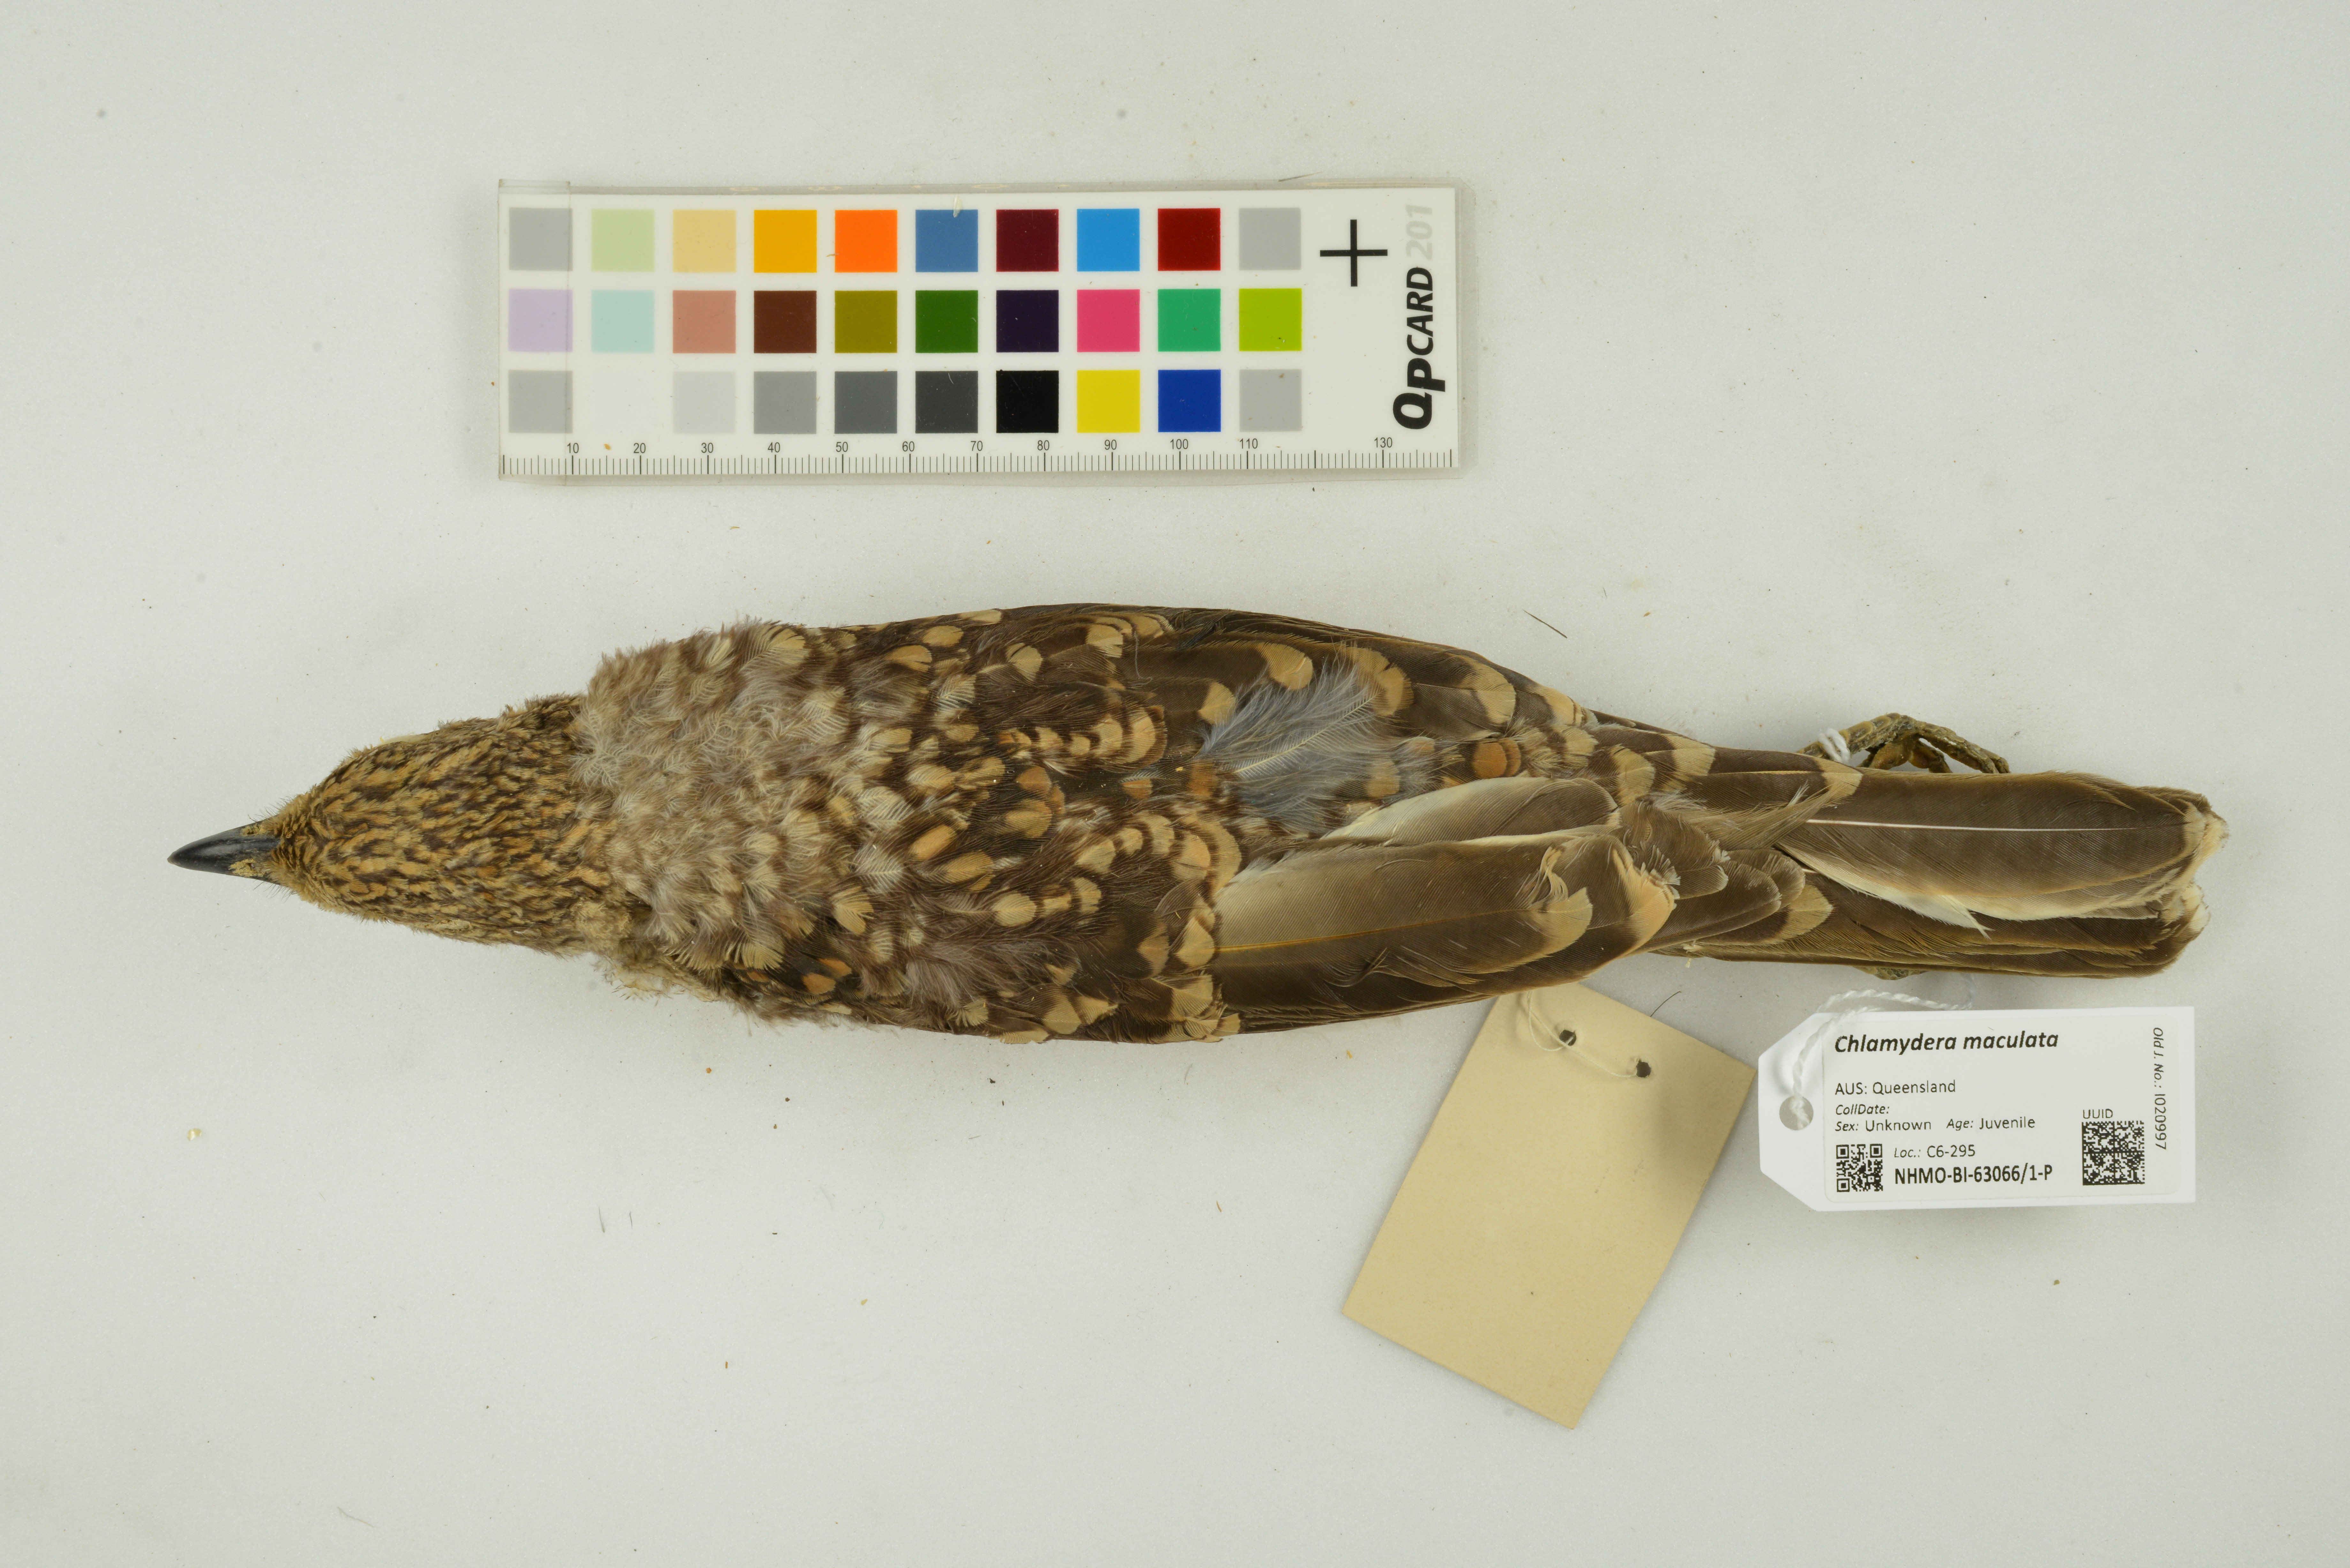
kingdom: Animalia
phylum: Chordata
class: Aves
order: Passeriformes
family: Ptilonorhynchidae
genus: Chlamydera
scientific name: Chlamydera maculata
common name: Spotted bowerbird
